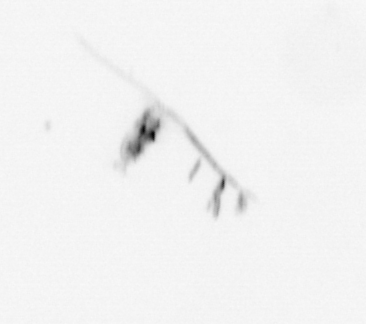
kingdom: Animalia
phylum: Arthropoda
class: Copepoda
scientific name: Copepoda
